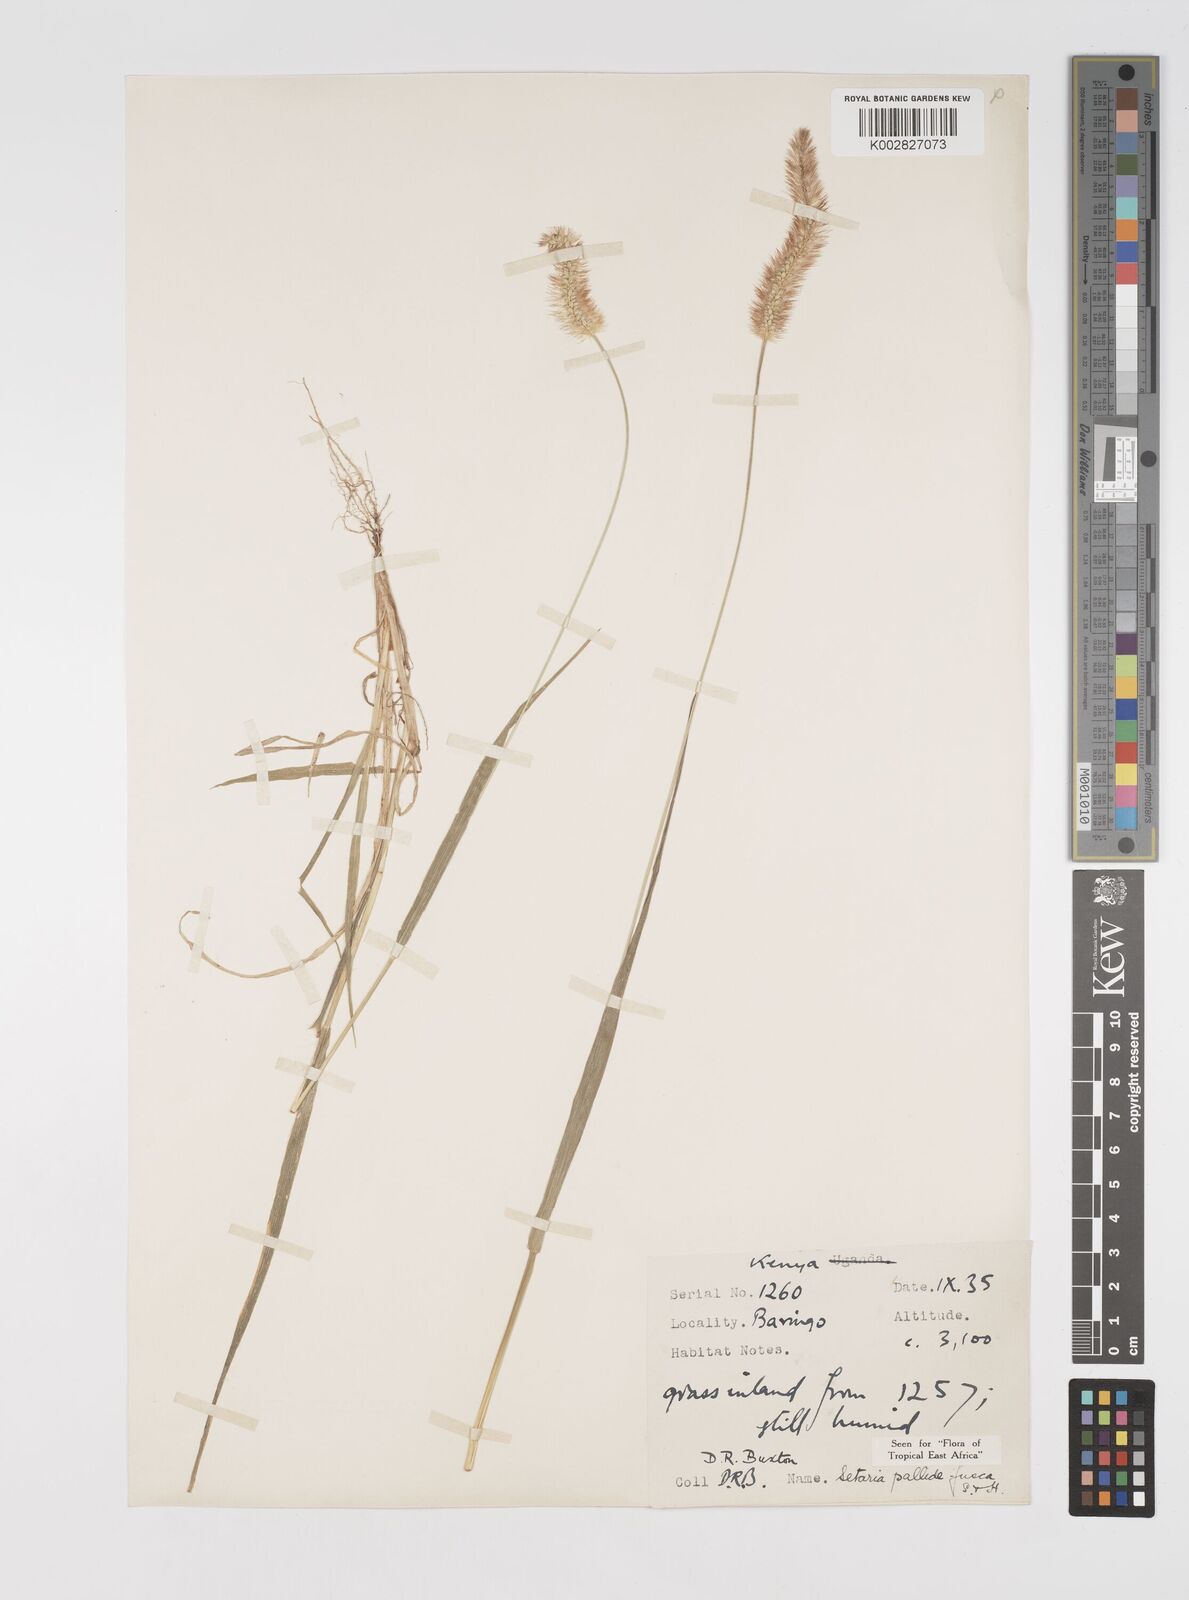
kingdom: Plantae
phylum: Tracheophyta
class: Liliopsida
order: Poales
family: Poaceae
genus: Setaria
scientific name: Setaria pumila
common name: Yellow bristle-grass
